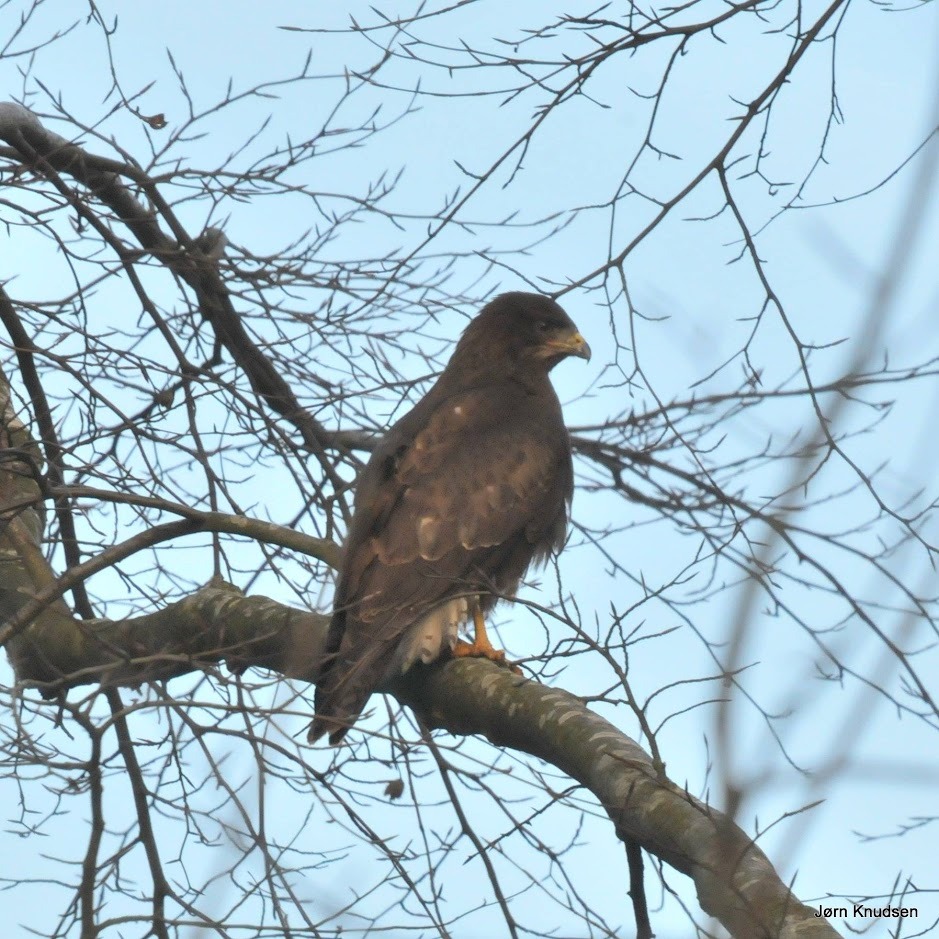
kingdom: Animalia
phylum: Chordata
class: Aves
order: Accipitriformes
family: Accipitridae
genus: Buteo
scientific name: Buteo buteo
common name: Musvåge
